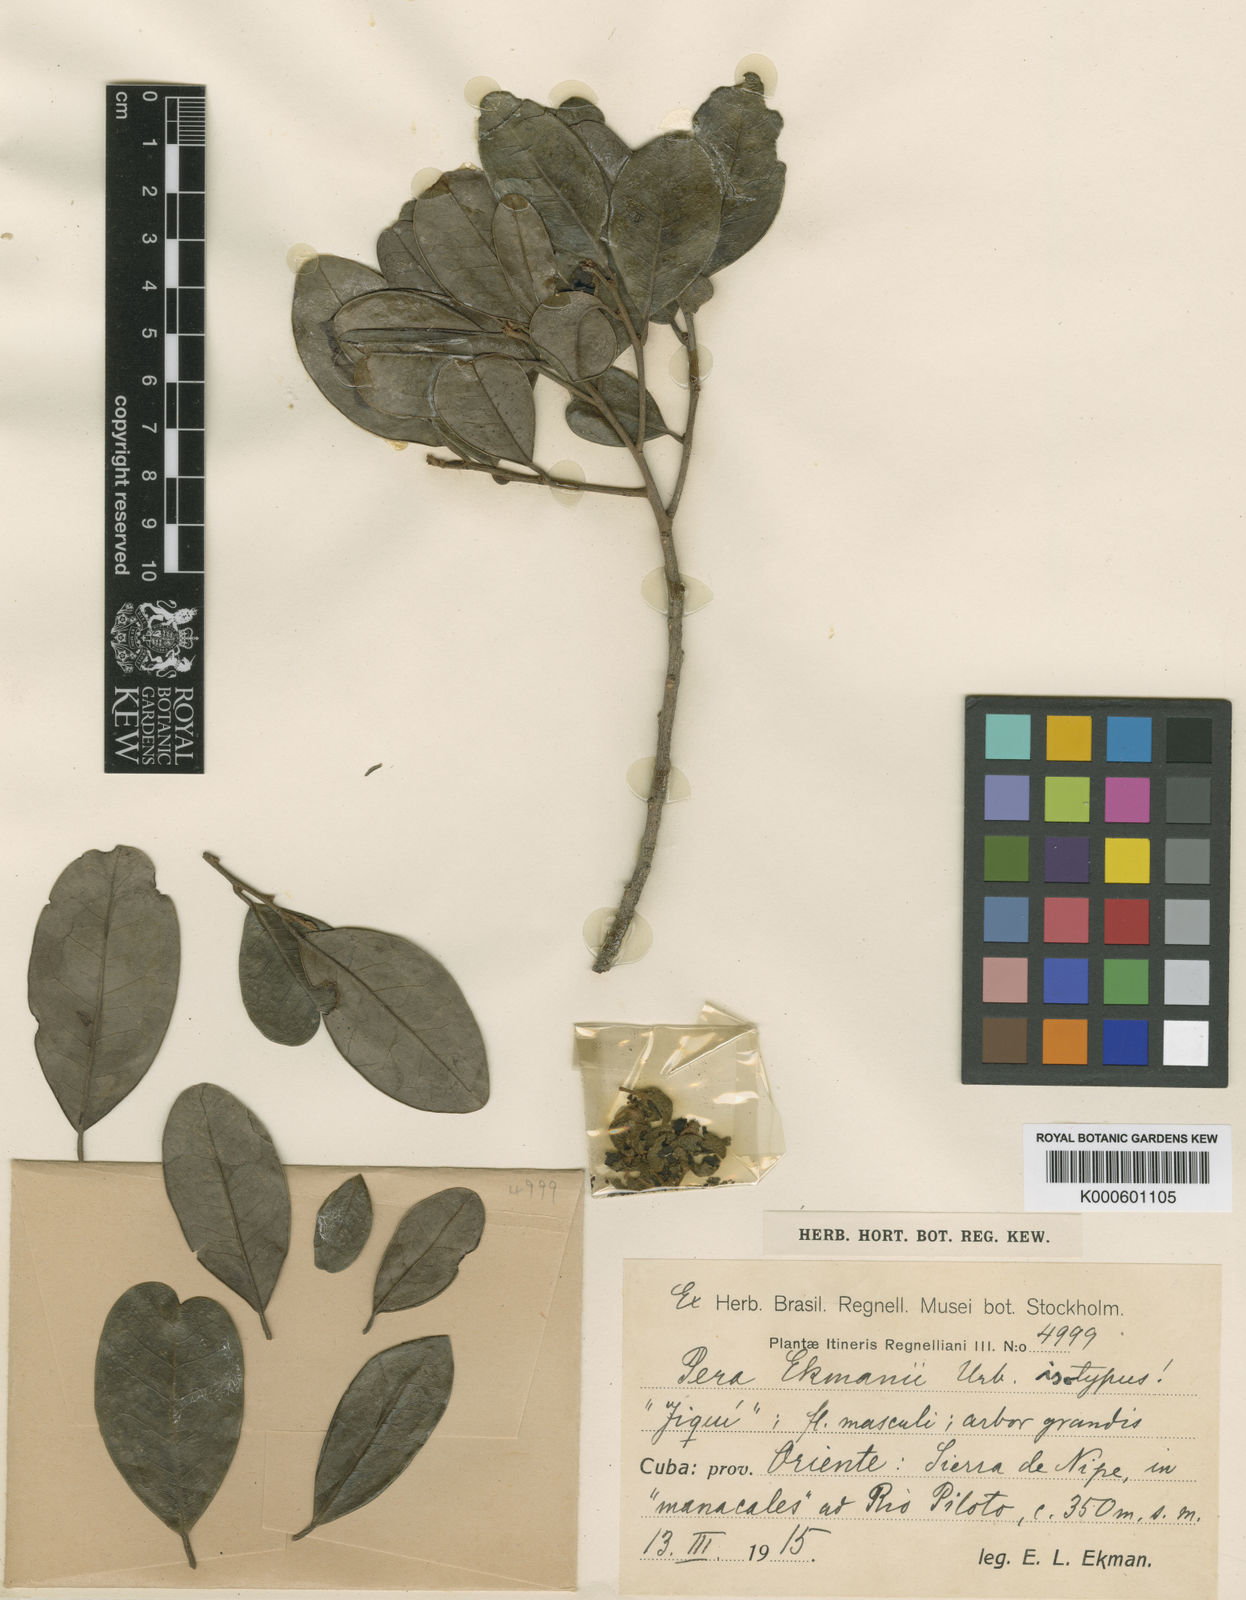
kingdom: Plantae
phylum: Tracheophyta
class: Magnoliopsida
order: Malpighiales
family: Peraceae
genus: Pera
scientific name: Pera ekmanii
